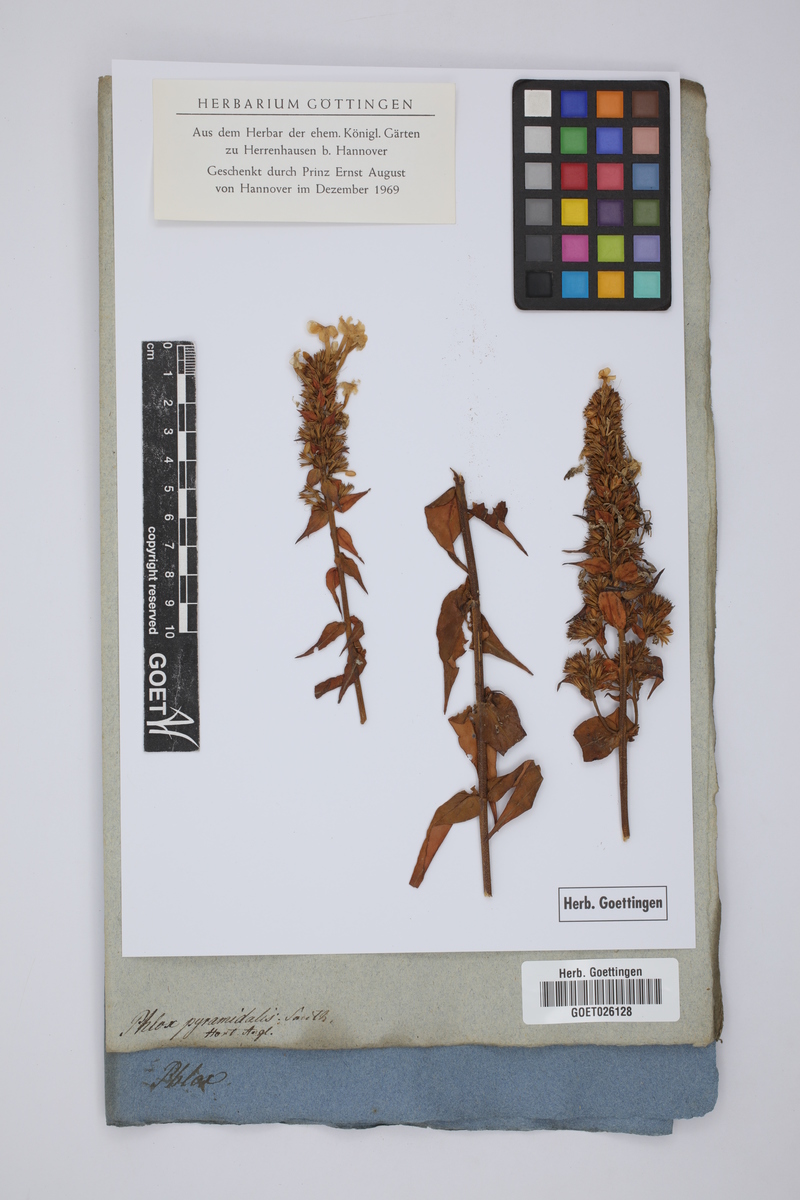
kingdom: Plantae
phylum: Tracheophyta
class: Magnoliopsida
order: Ericales
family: Polemoniaceae
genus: Phlox
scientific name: Phlox pyramidalis
